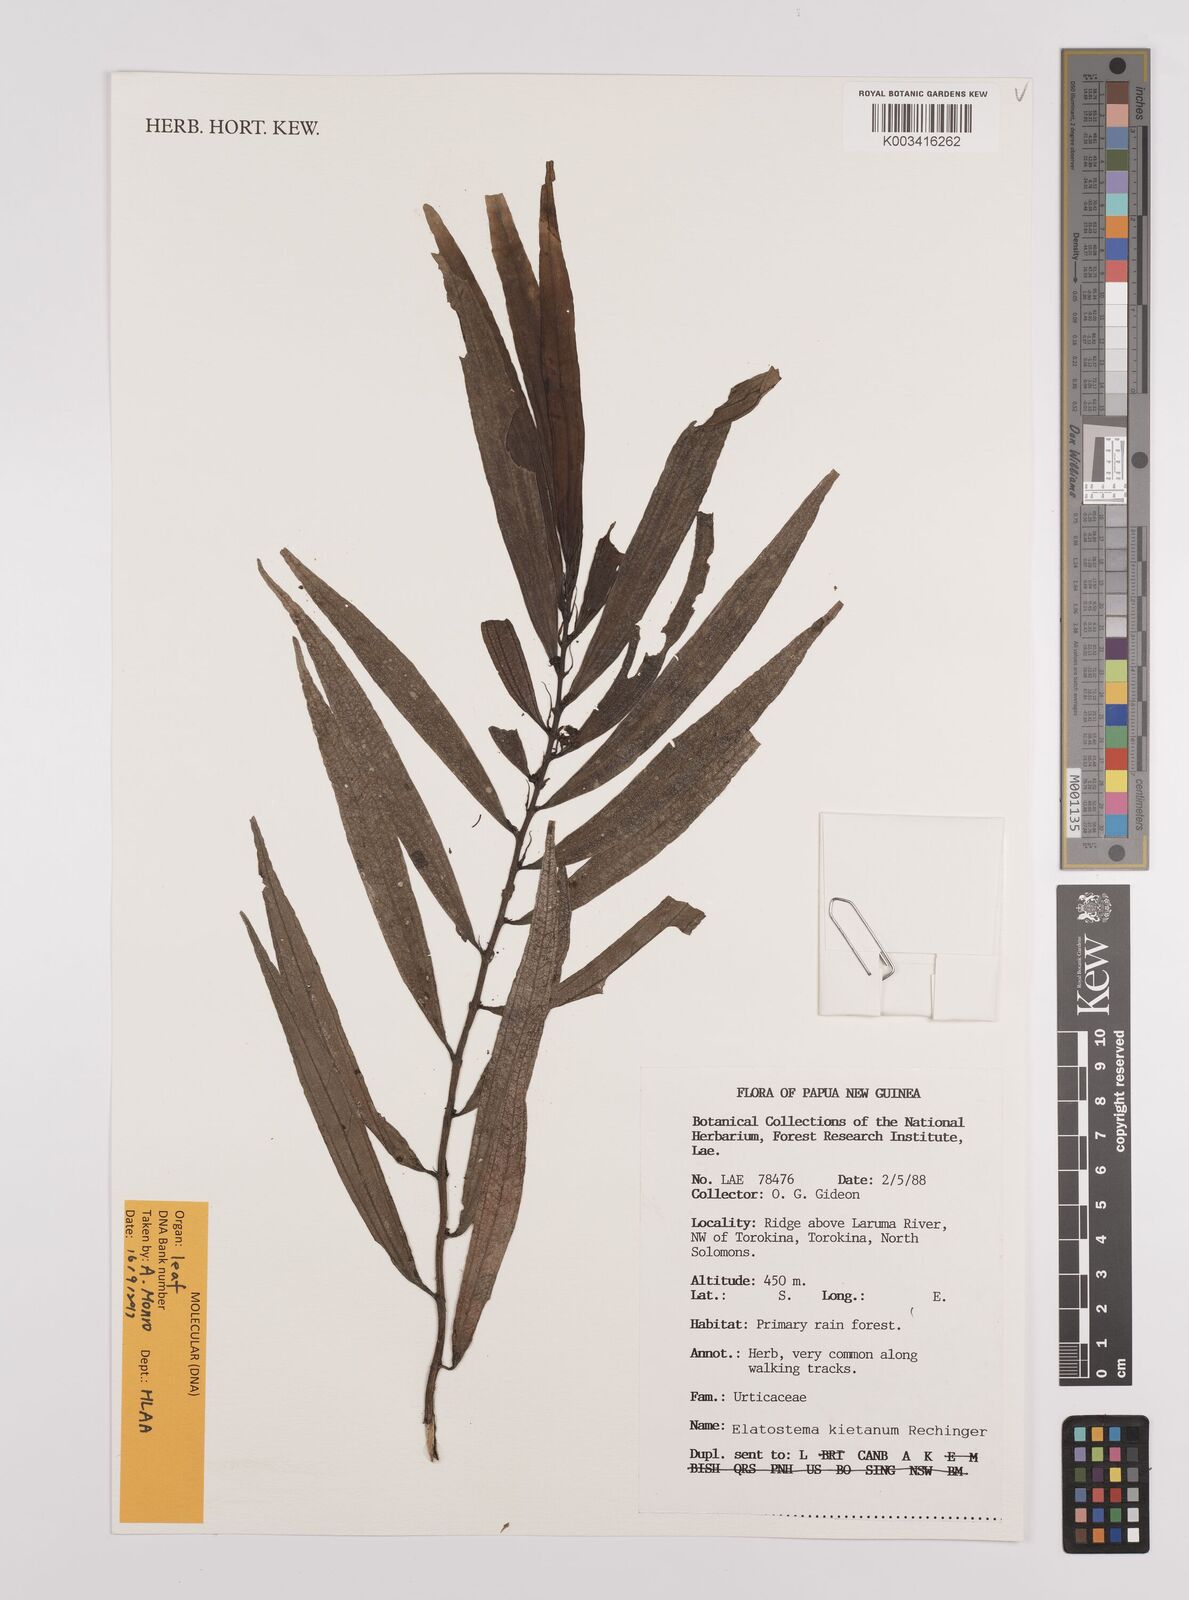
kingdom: Plantae
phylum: Tracheophyta
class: Magnoliopsida
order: Rosales
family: Urticaceae
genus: Elatostema
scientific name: Elatostema kietanum
